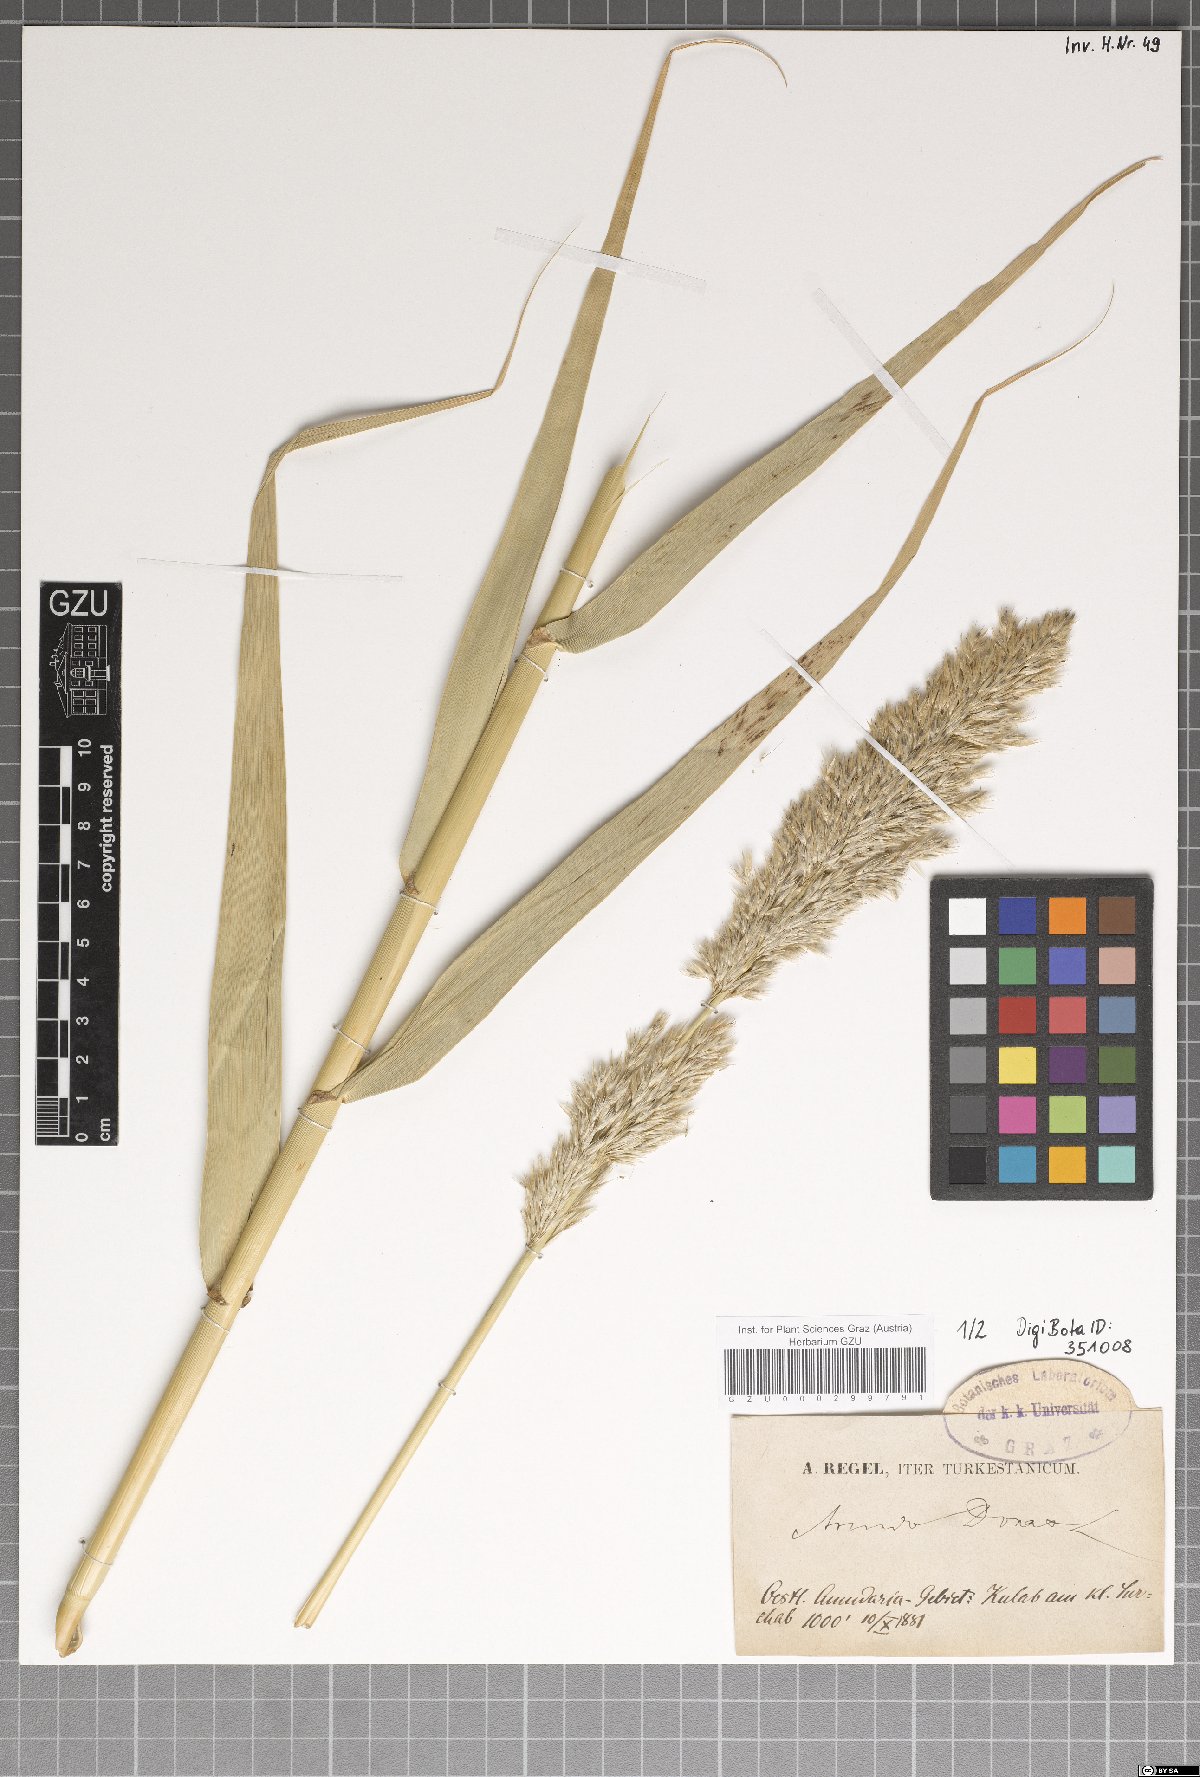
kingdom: Plantae
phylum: Tracheophyta
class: Liliopsida
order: Poales
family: Poaceae
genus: Arundo
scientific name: Arundo donax
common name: Giant reed
